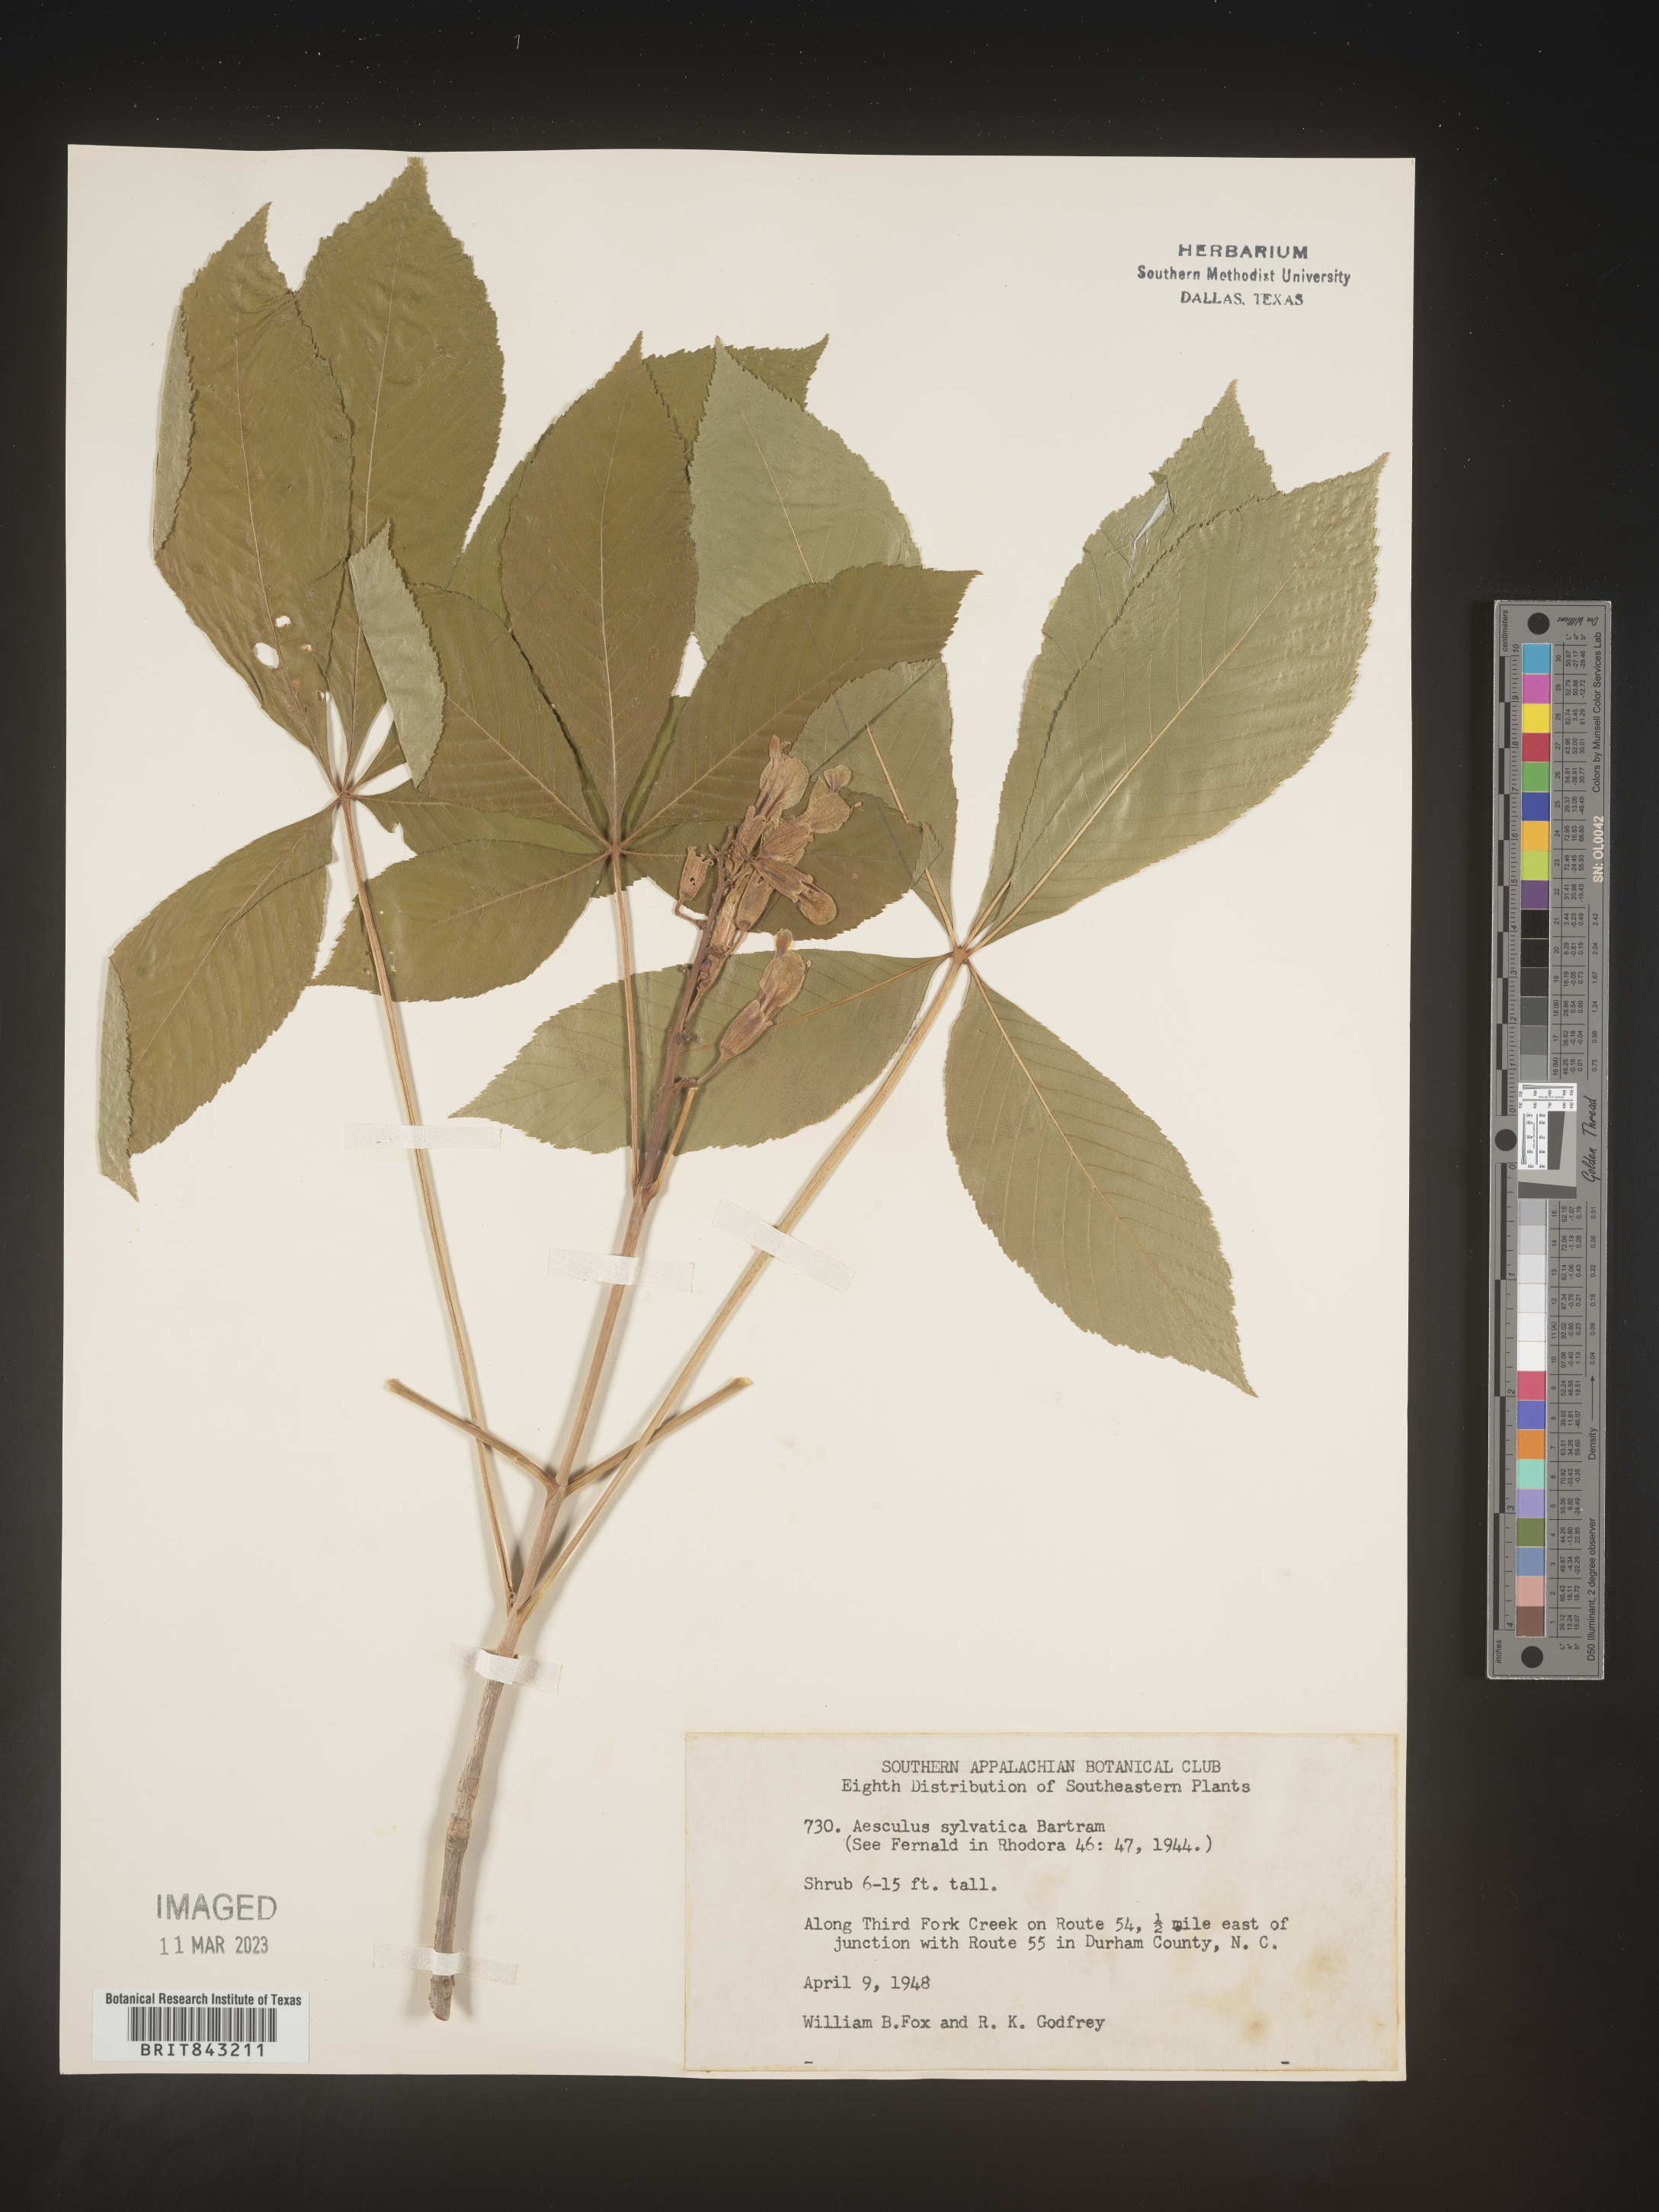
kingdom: Plantae
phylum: Tracheophyta
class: Magnoliopsida
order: Sapindales
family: Sapindaceae
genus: Aesculus
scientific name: Aesculus
